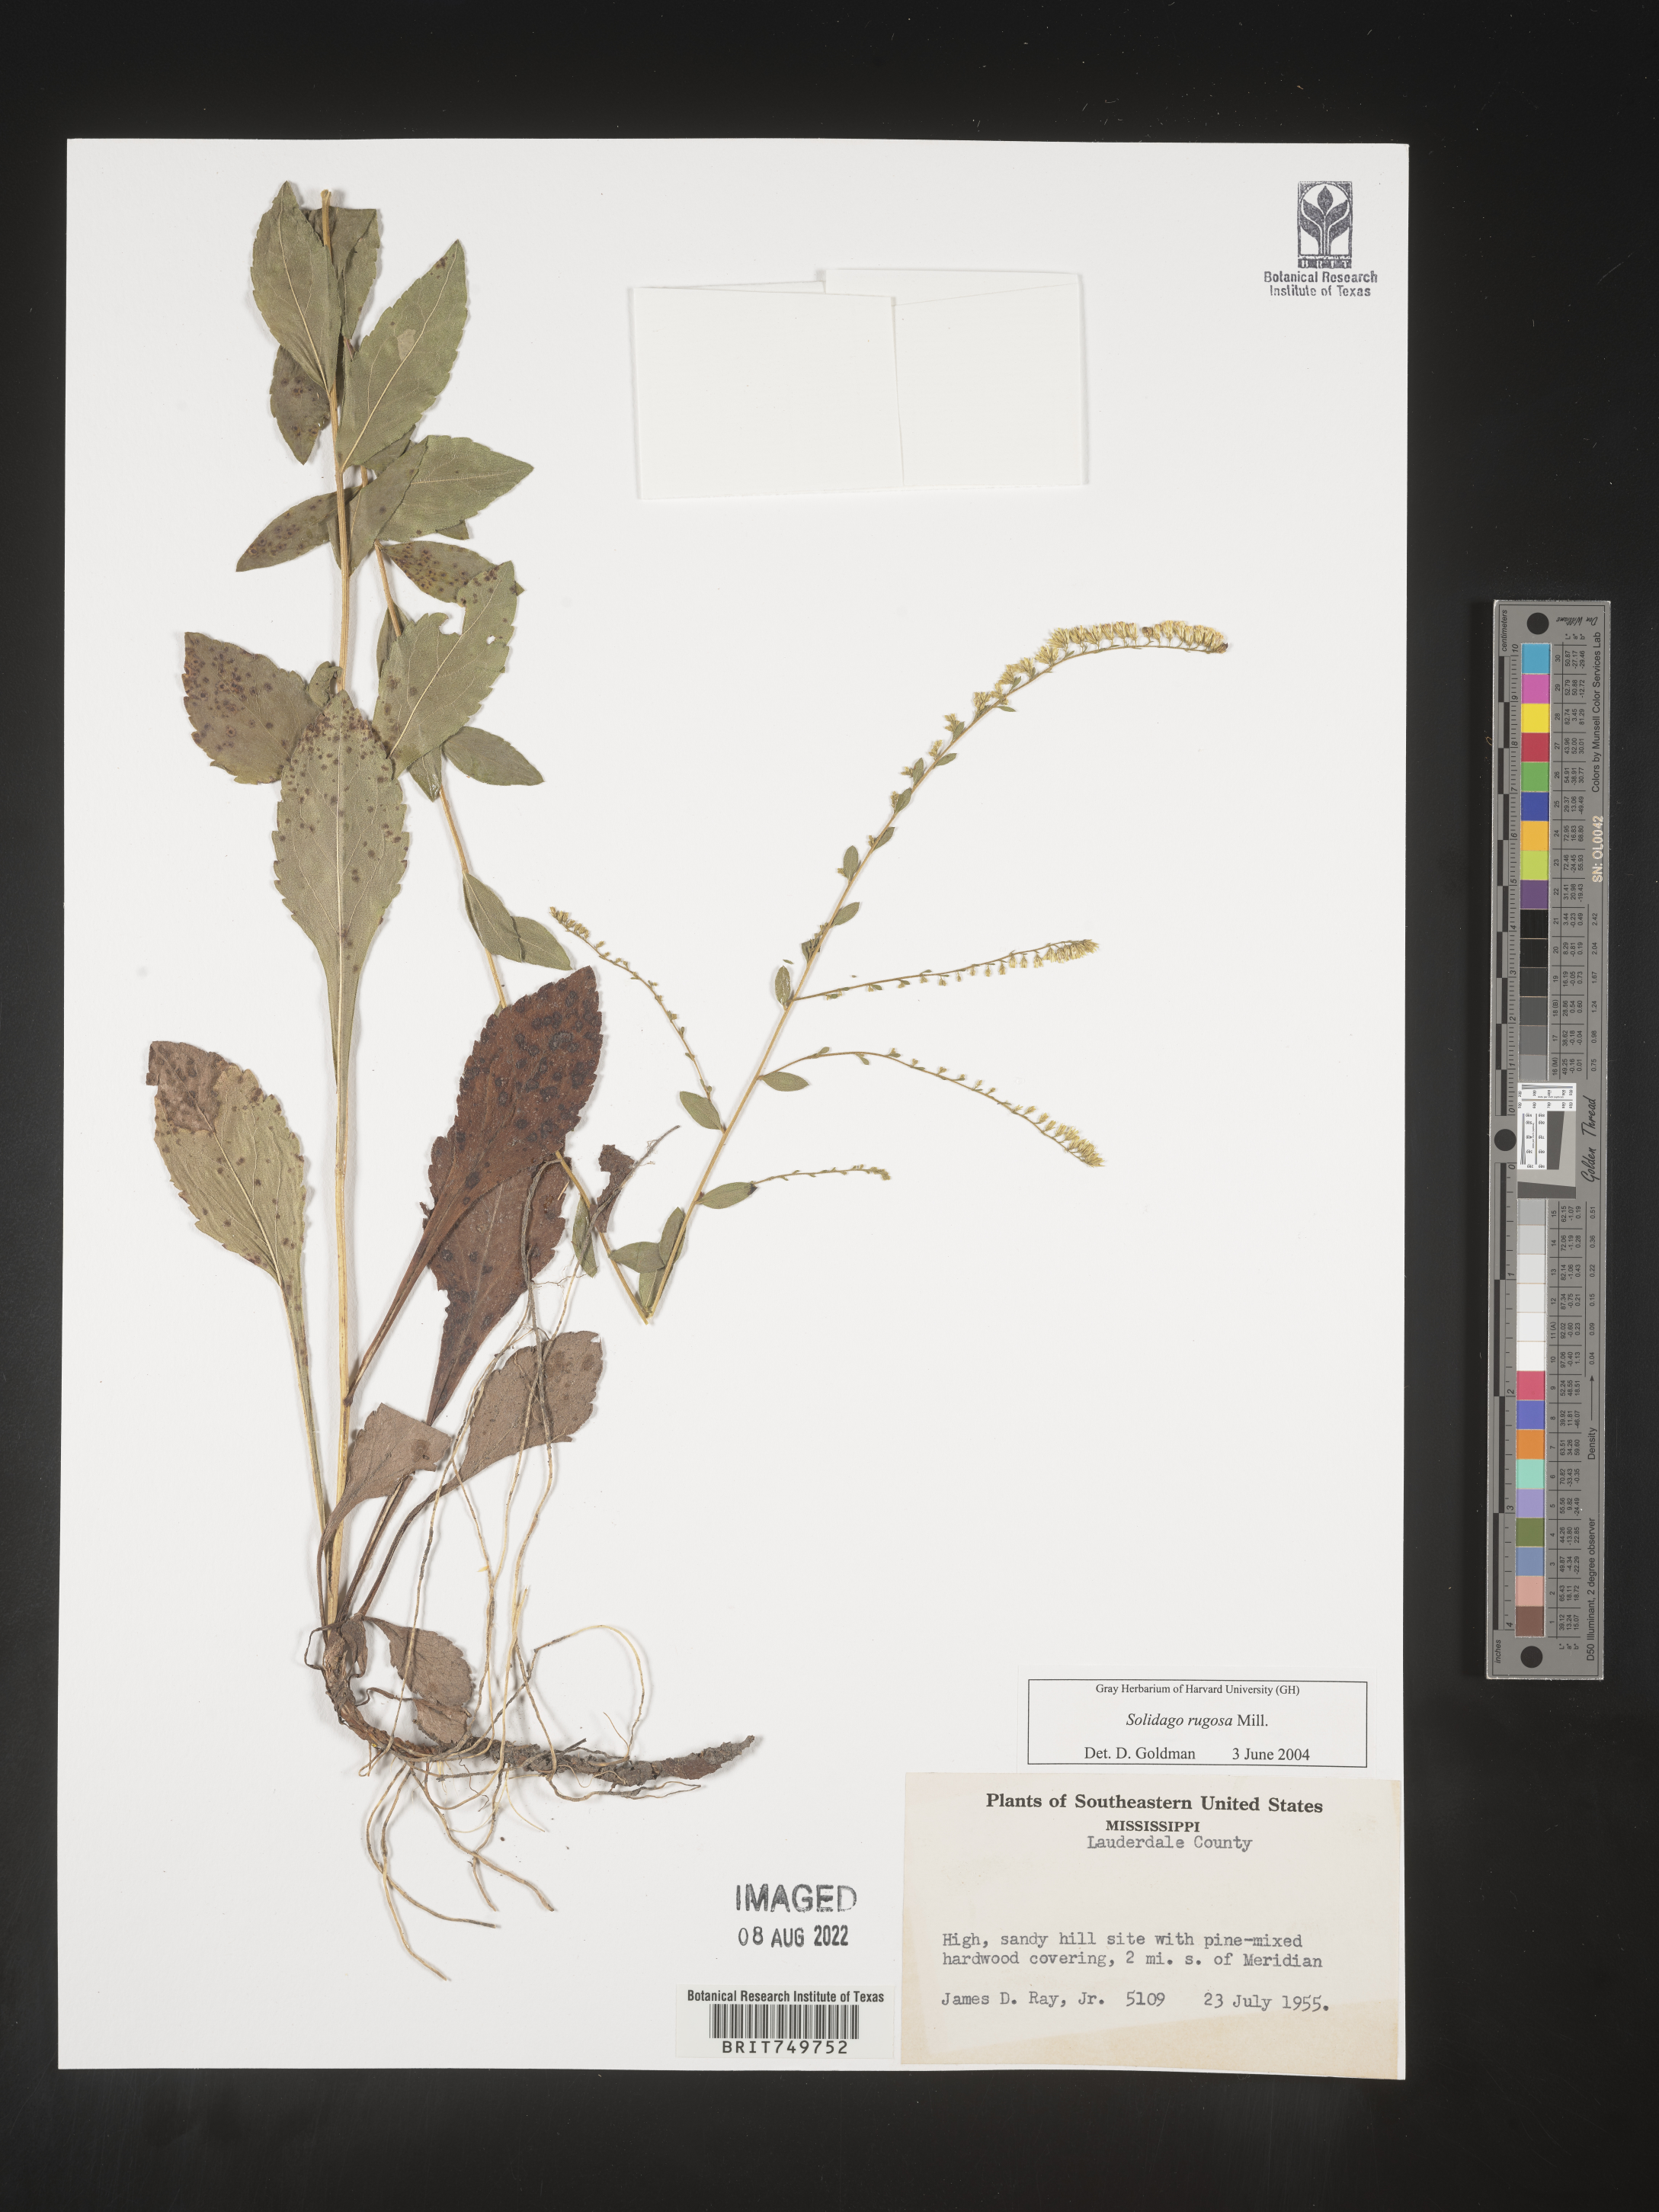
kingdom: Plantae
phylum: Tracheophyta
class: Magnoliopsida
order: Asterales
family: Asteraceae
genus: Solidago
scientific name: Solidago ulmifolia
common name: Elm-leaf goldenrod
